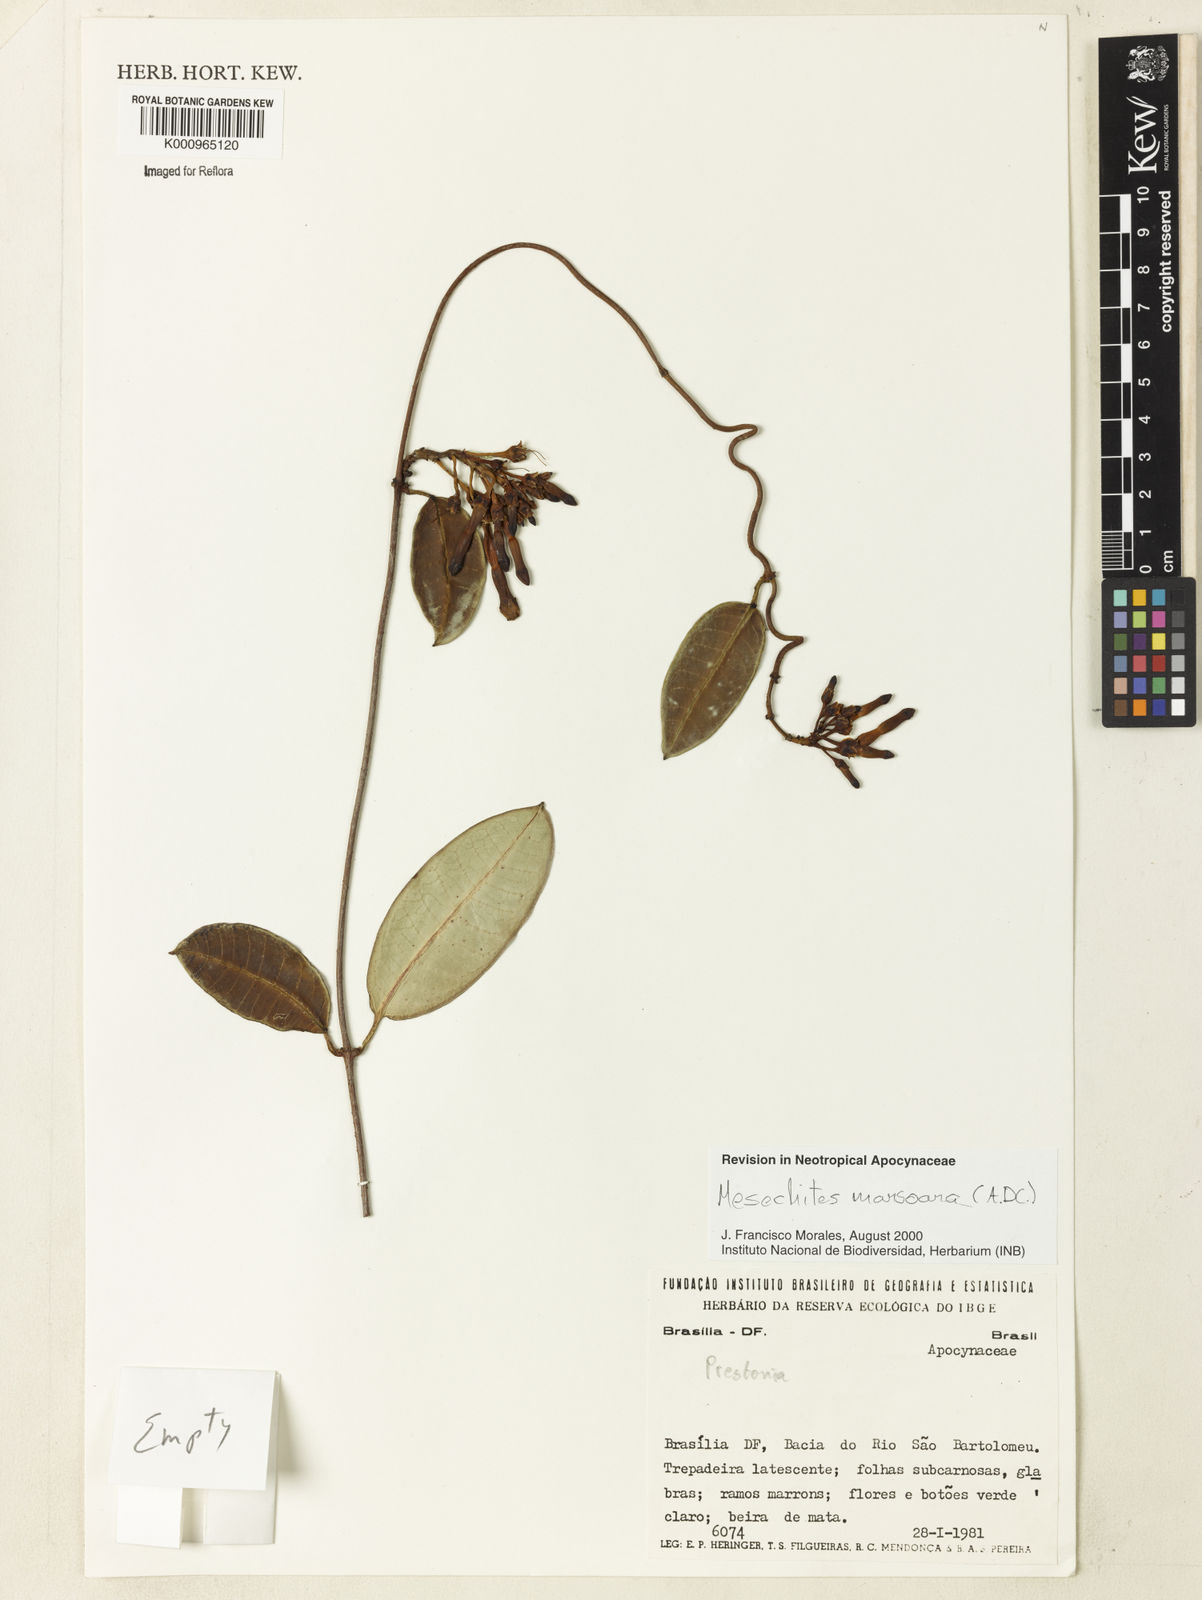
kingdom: Plantae
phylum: Tracheophyta
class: Magnoliopsida
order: Gentianales
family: Apocynaceae
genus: Mesechites
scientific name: Mesechites
